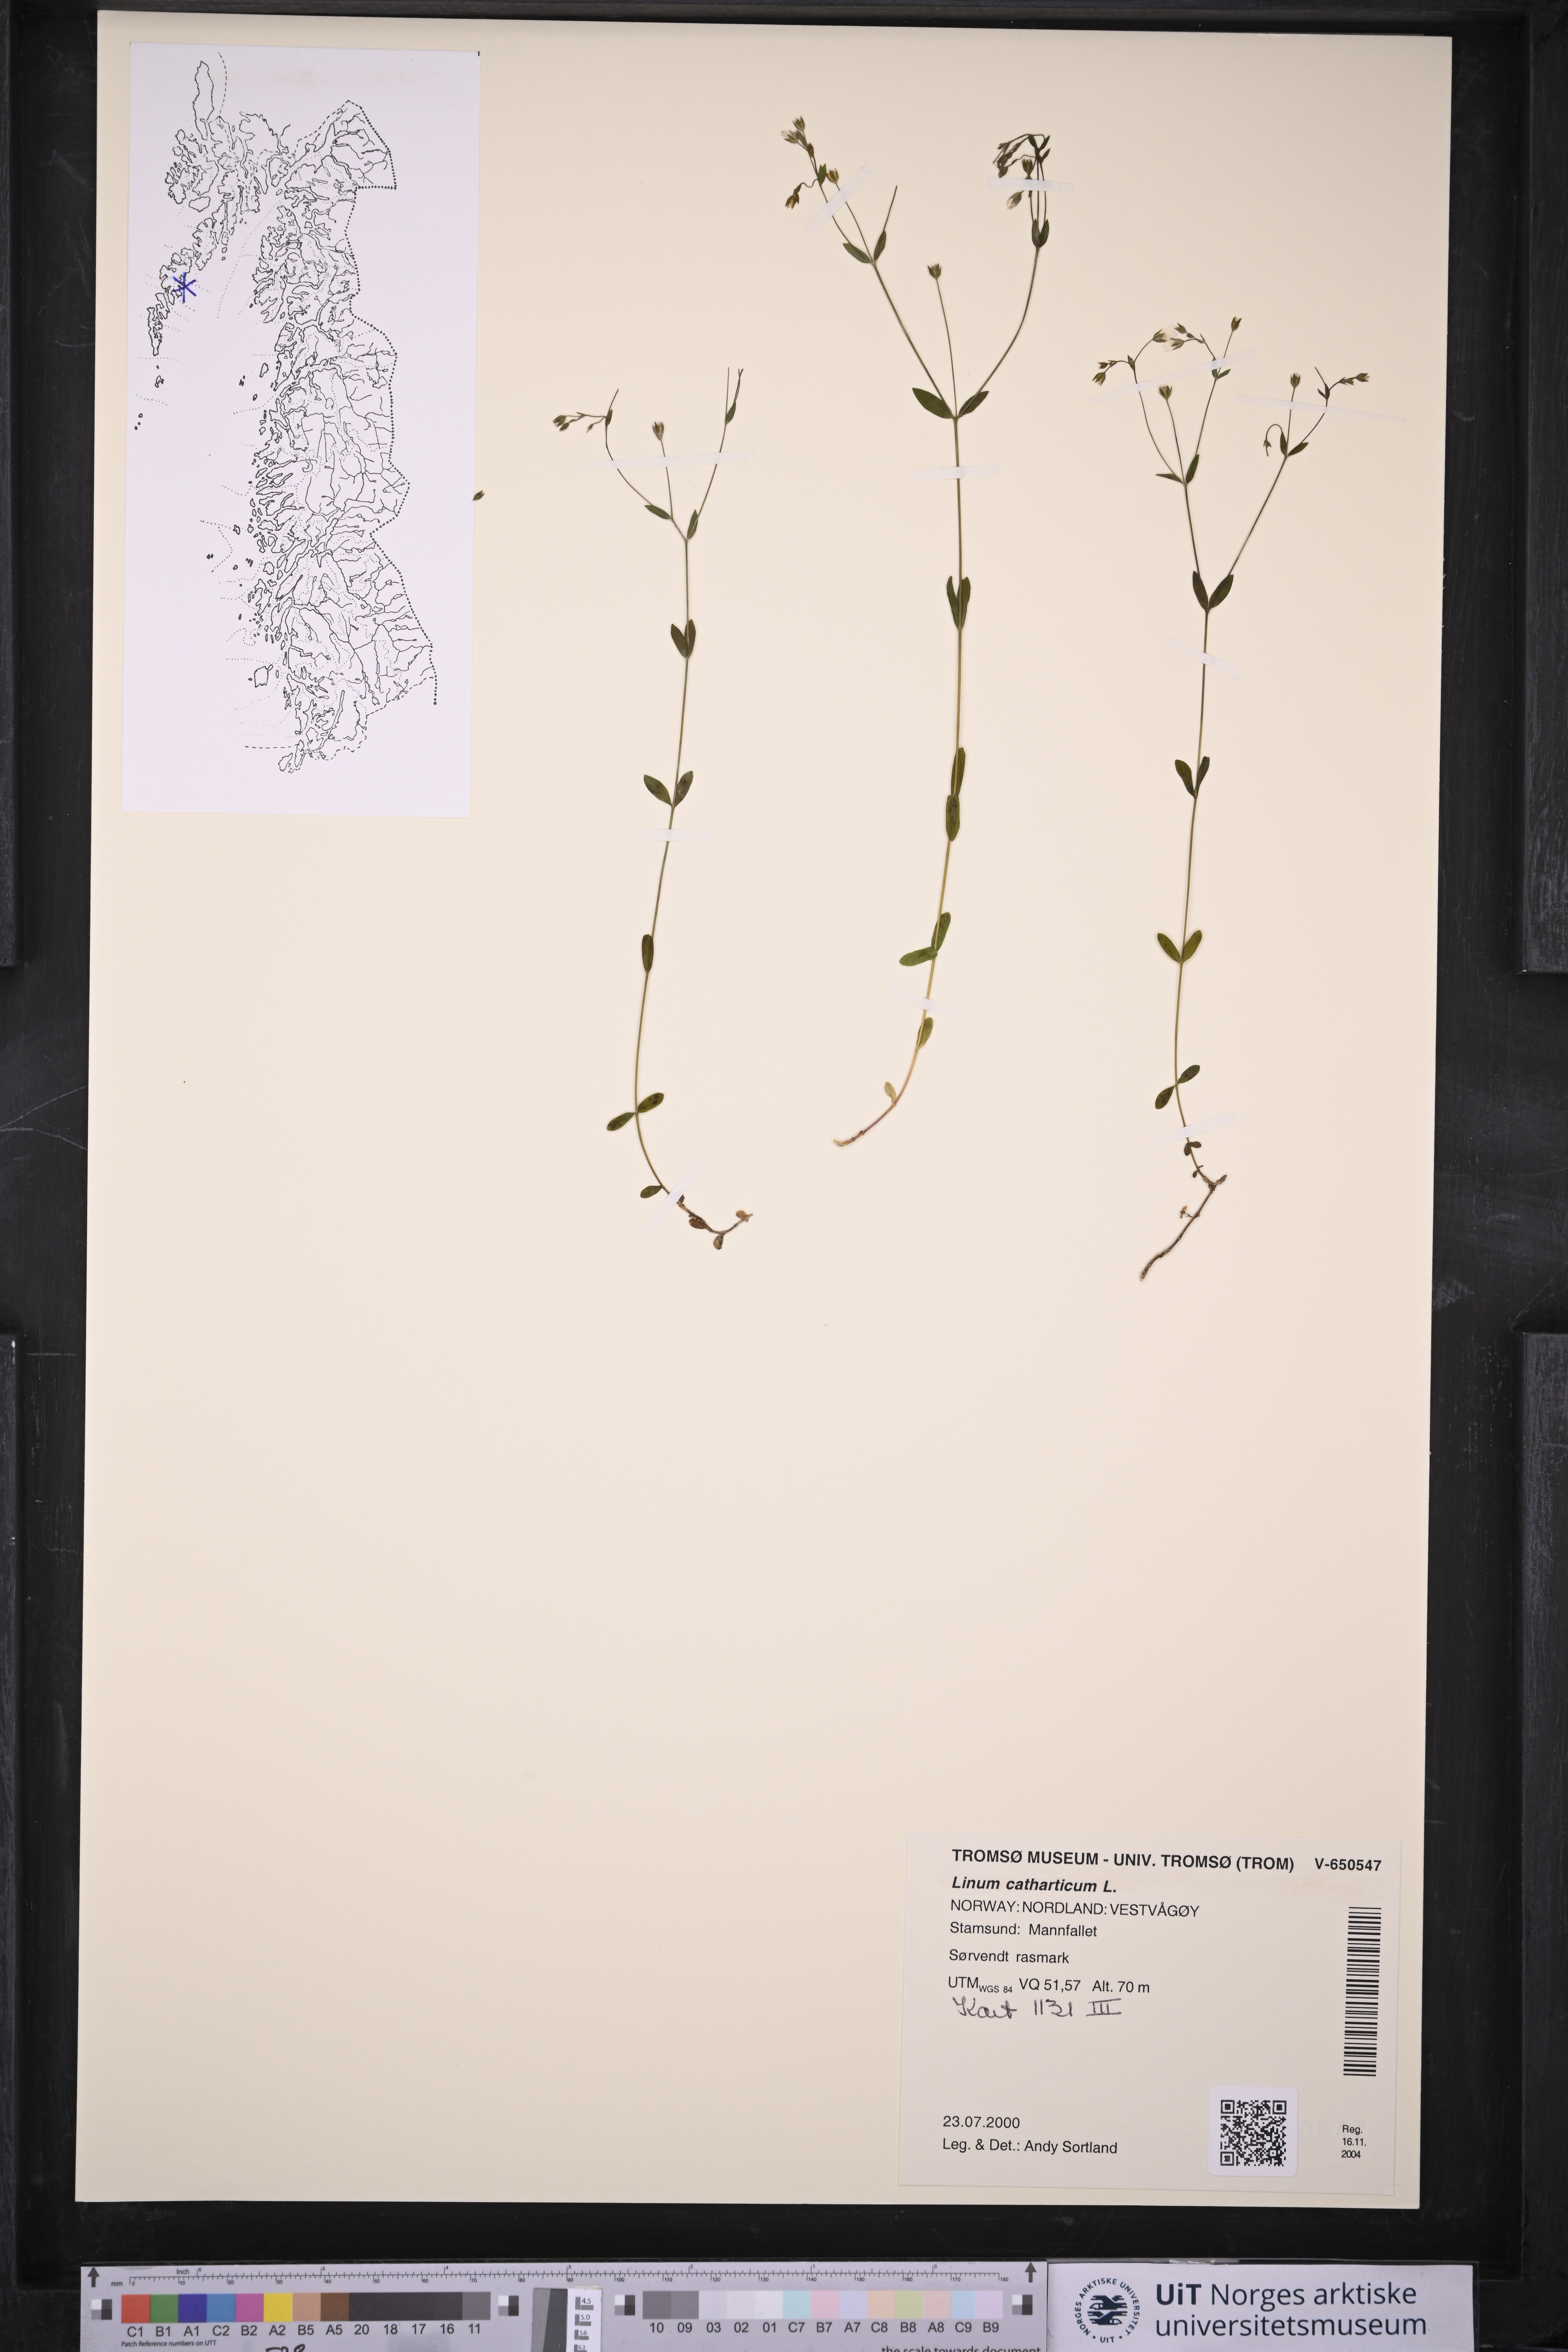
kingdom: Plantae
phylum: Tracheophyta
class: Magnoliopsida
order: Malpighiales
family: Linaceae
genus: Linum
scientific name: Linum catharticum
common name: Fairy flax
